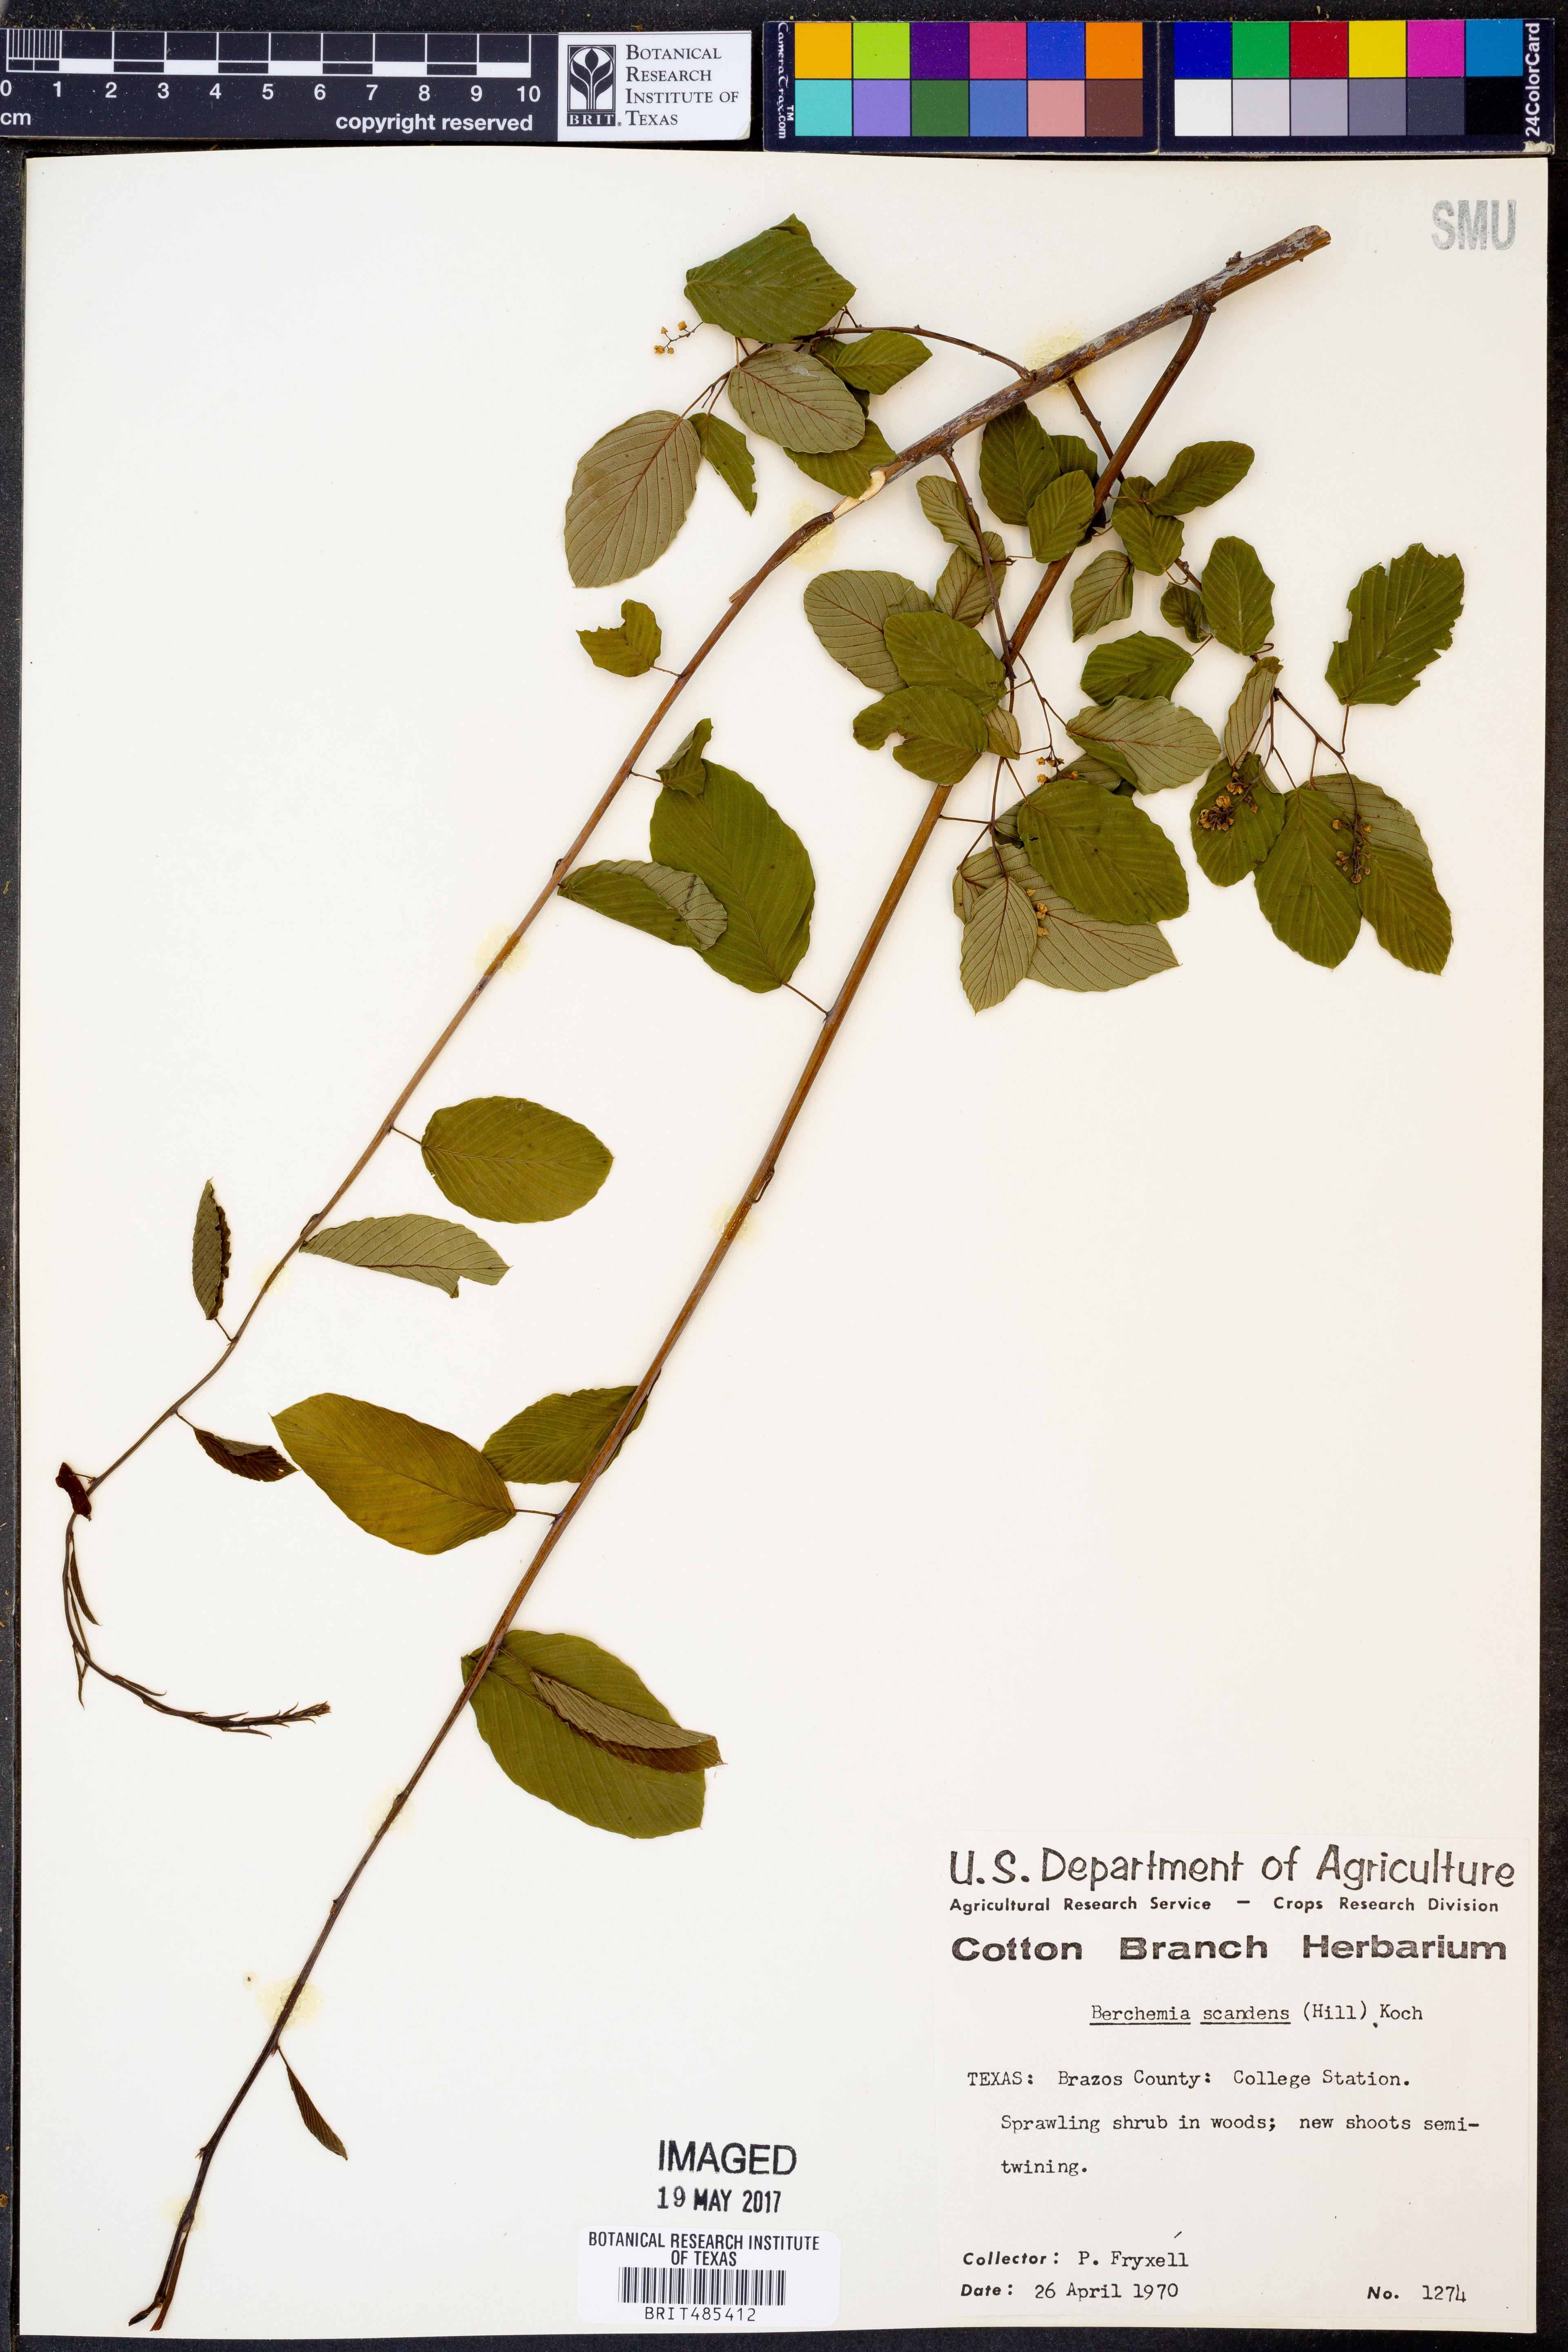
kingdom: Plantae
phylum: Tracheophyta
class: Magnoliopsida
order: Rosales
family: Rhamnaceae
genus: Berchemia
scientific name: Berchemia scandens
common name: Supplejack
